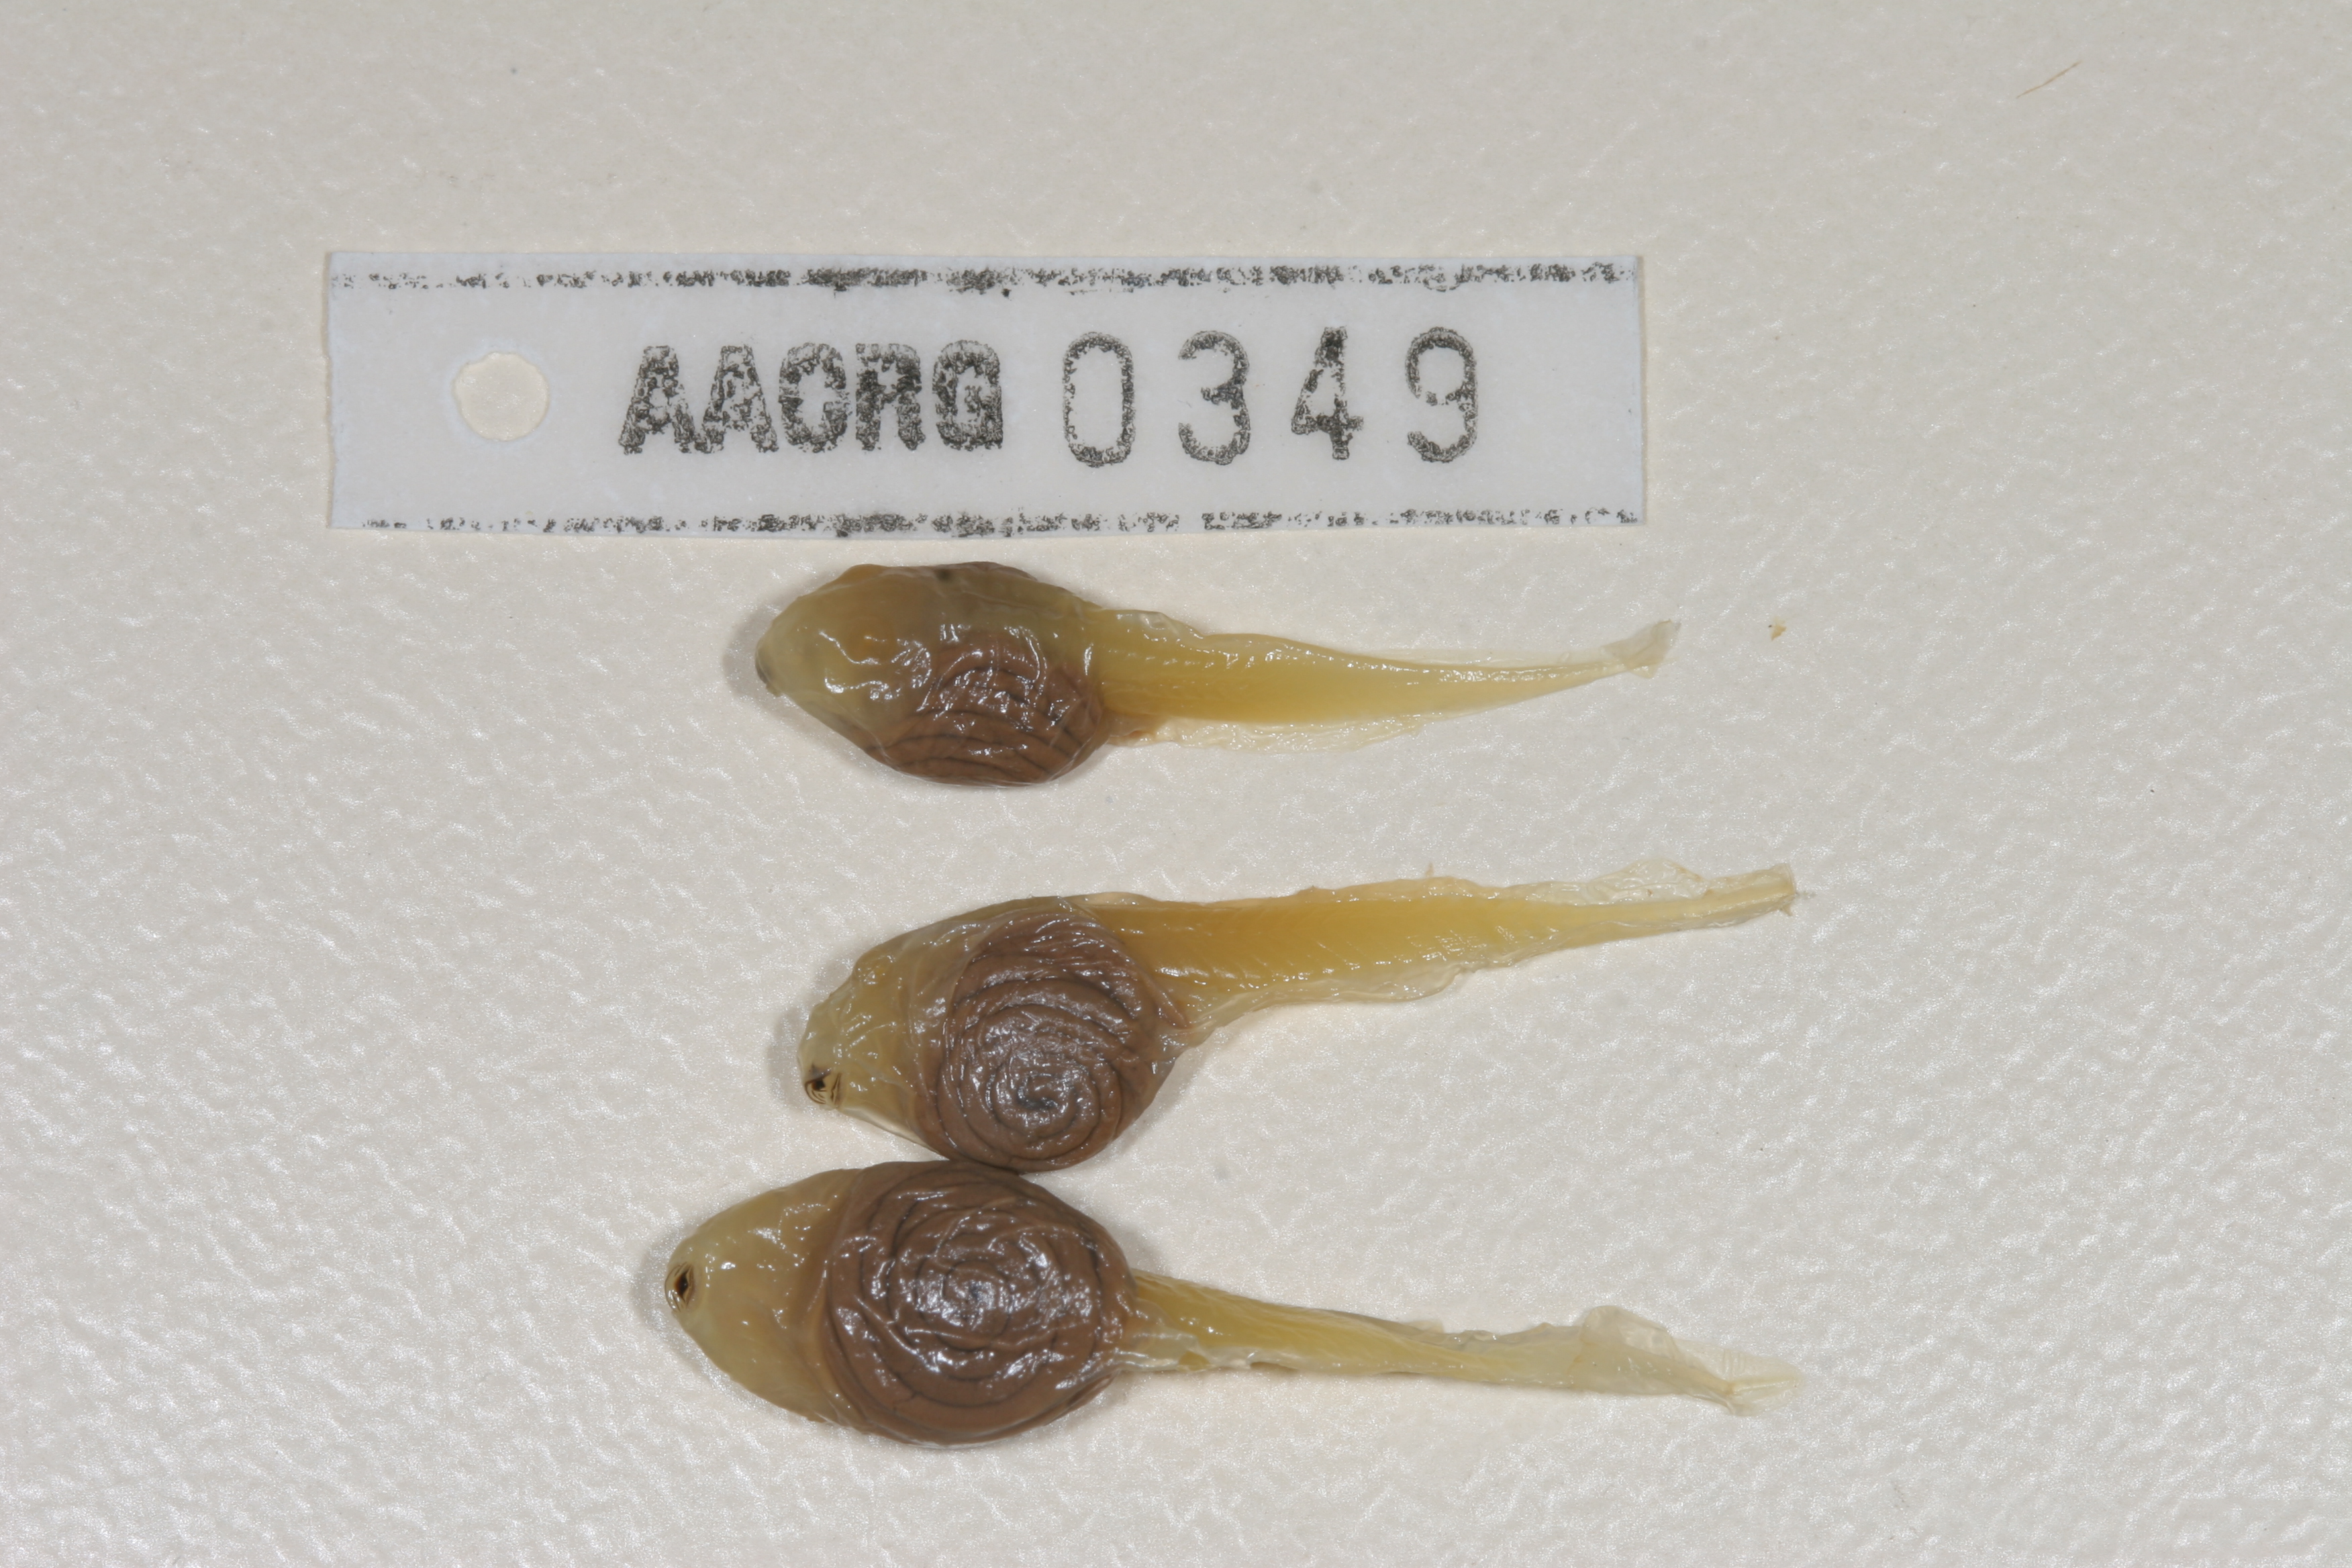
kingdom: Animalia
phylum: Chordata
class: Amphibia
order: Anura
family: Pyxicephalidae
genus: Tomopterna
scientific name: Tomopterna cryptotis
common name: Catequero bullfrog
